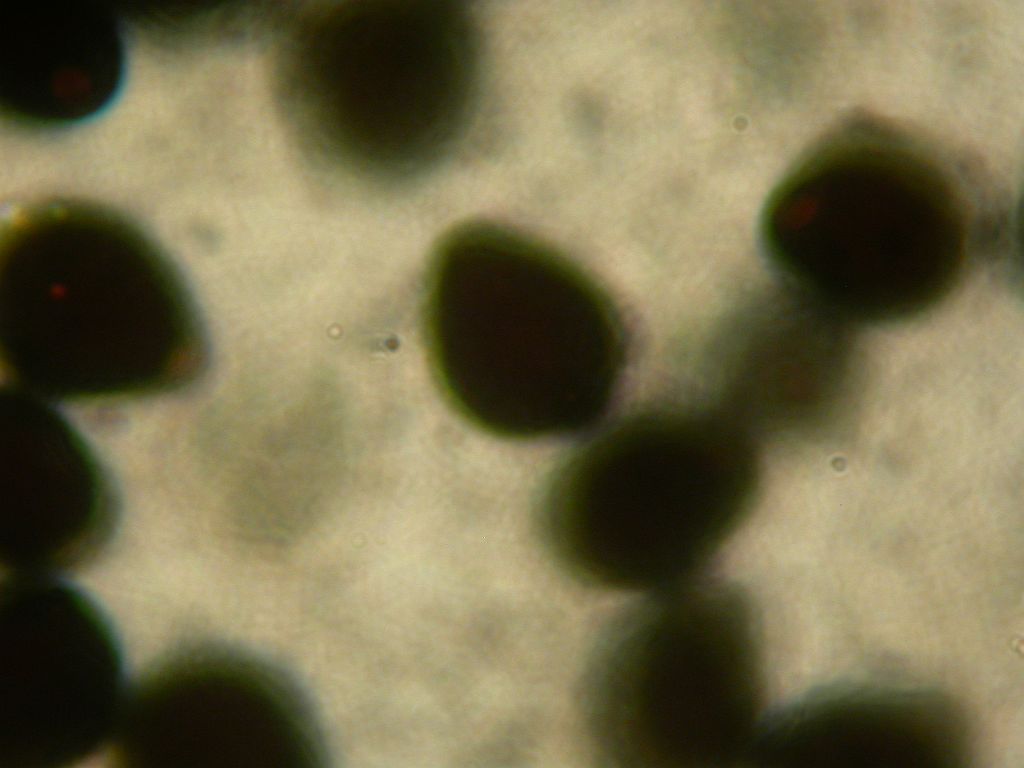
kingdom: Fungi
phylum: Basidiomycota
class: Agaricomycetes
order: Agaricales
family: Psathyrellaceae
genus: Parasola
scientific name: Parasola schroeteri
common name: bredsporet hjulhat
